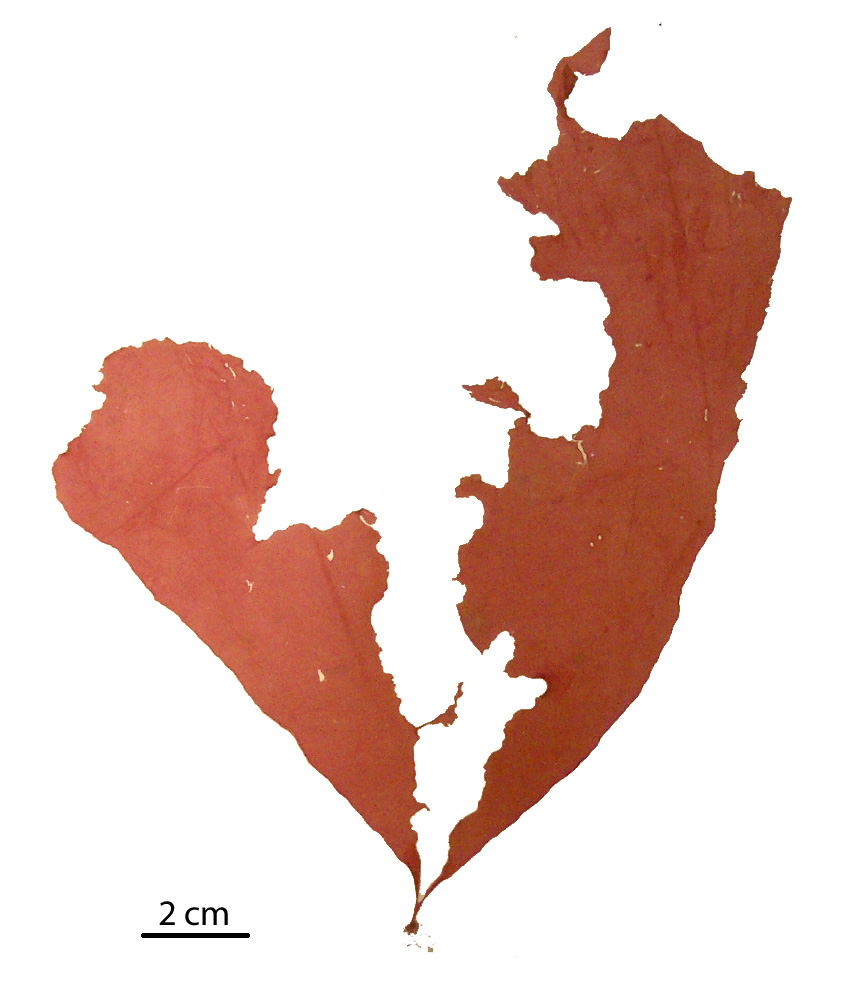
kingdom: Plantae
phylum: Rhodophyta
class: Florideophyceae
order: Gigartinales
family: Kallymeniaceae
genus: Psaromenia
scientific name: Psaromenia berggrenii
